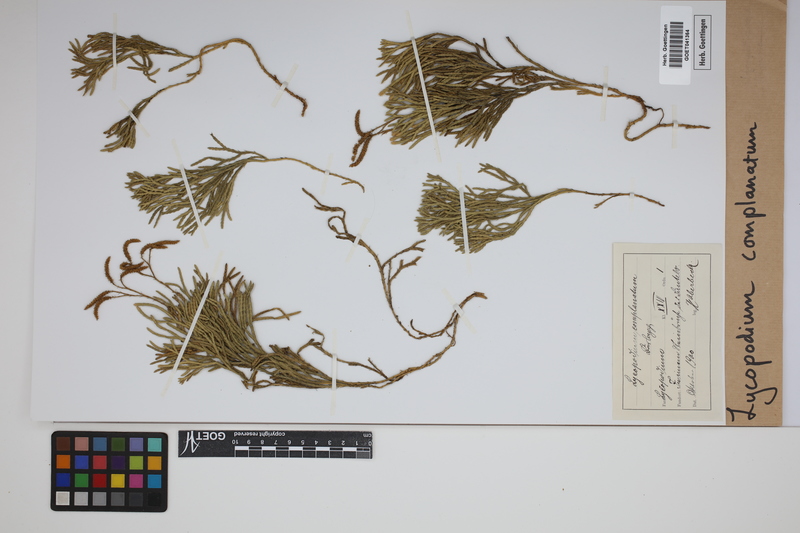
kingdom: Plantae
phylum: Tracheophyta
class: Lycopodiopsida
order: Lycopodiales
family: Lycopodiaceae
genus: Diphasiastrum
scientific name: Diphasiastrum complanatum
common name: Northern running-pine
